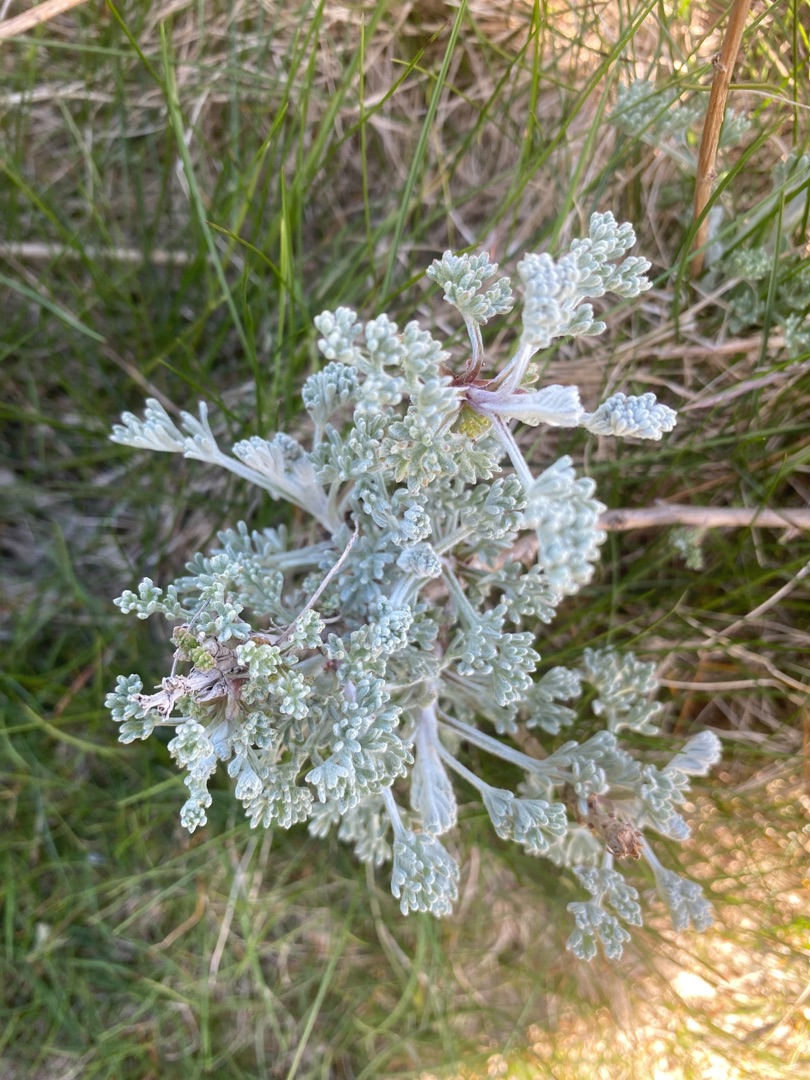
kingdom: Plantae
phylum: Tracheophyta
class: Magnoliopsida
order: Asterales
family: Asteraceae
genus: Artemisia
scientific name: Artemisia maritima
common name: Strandmalurt
